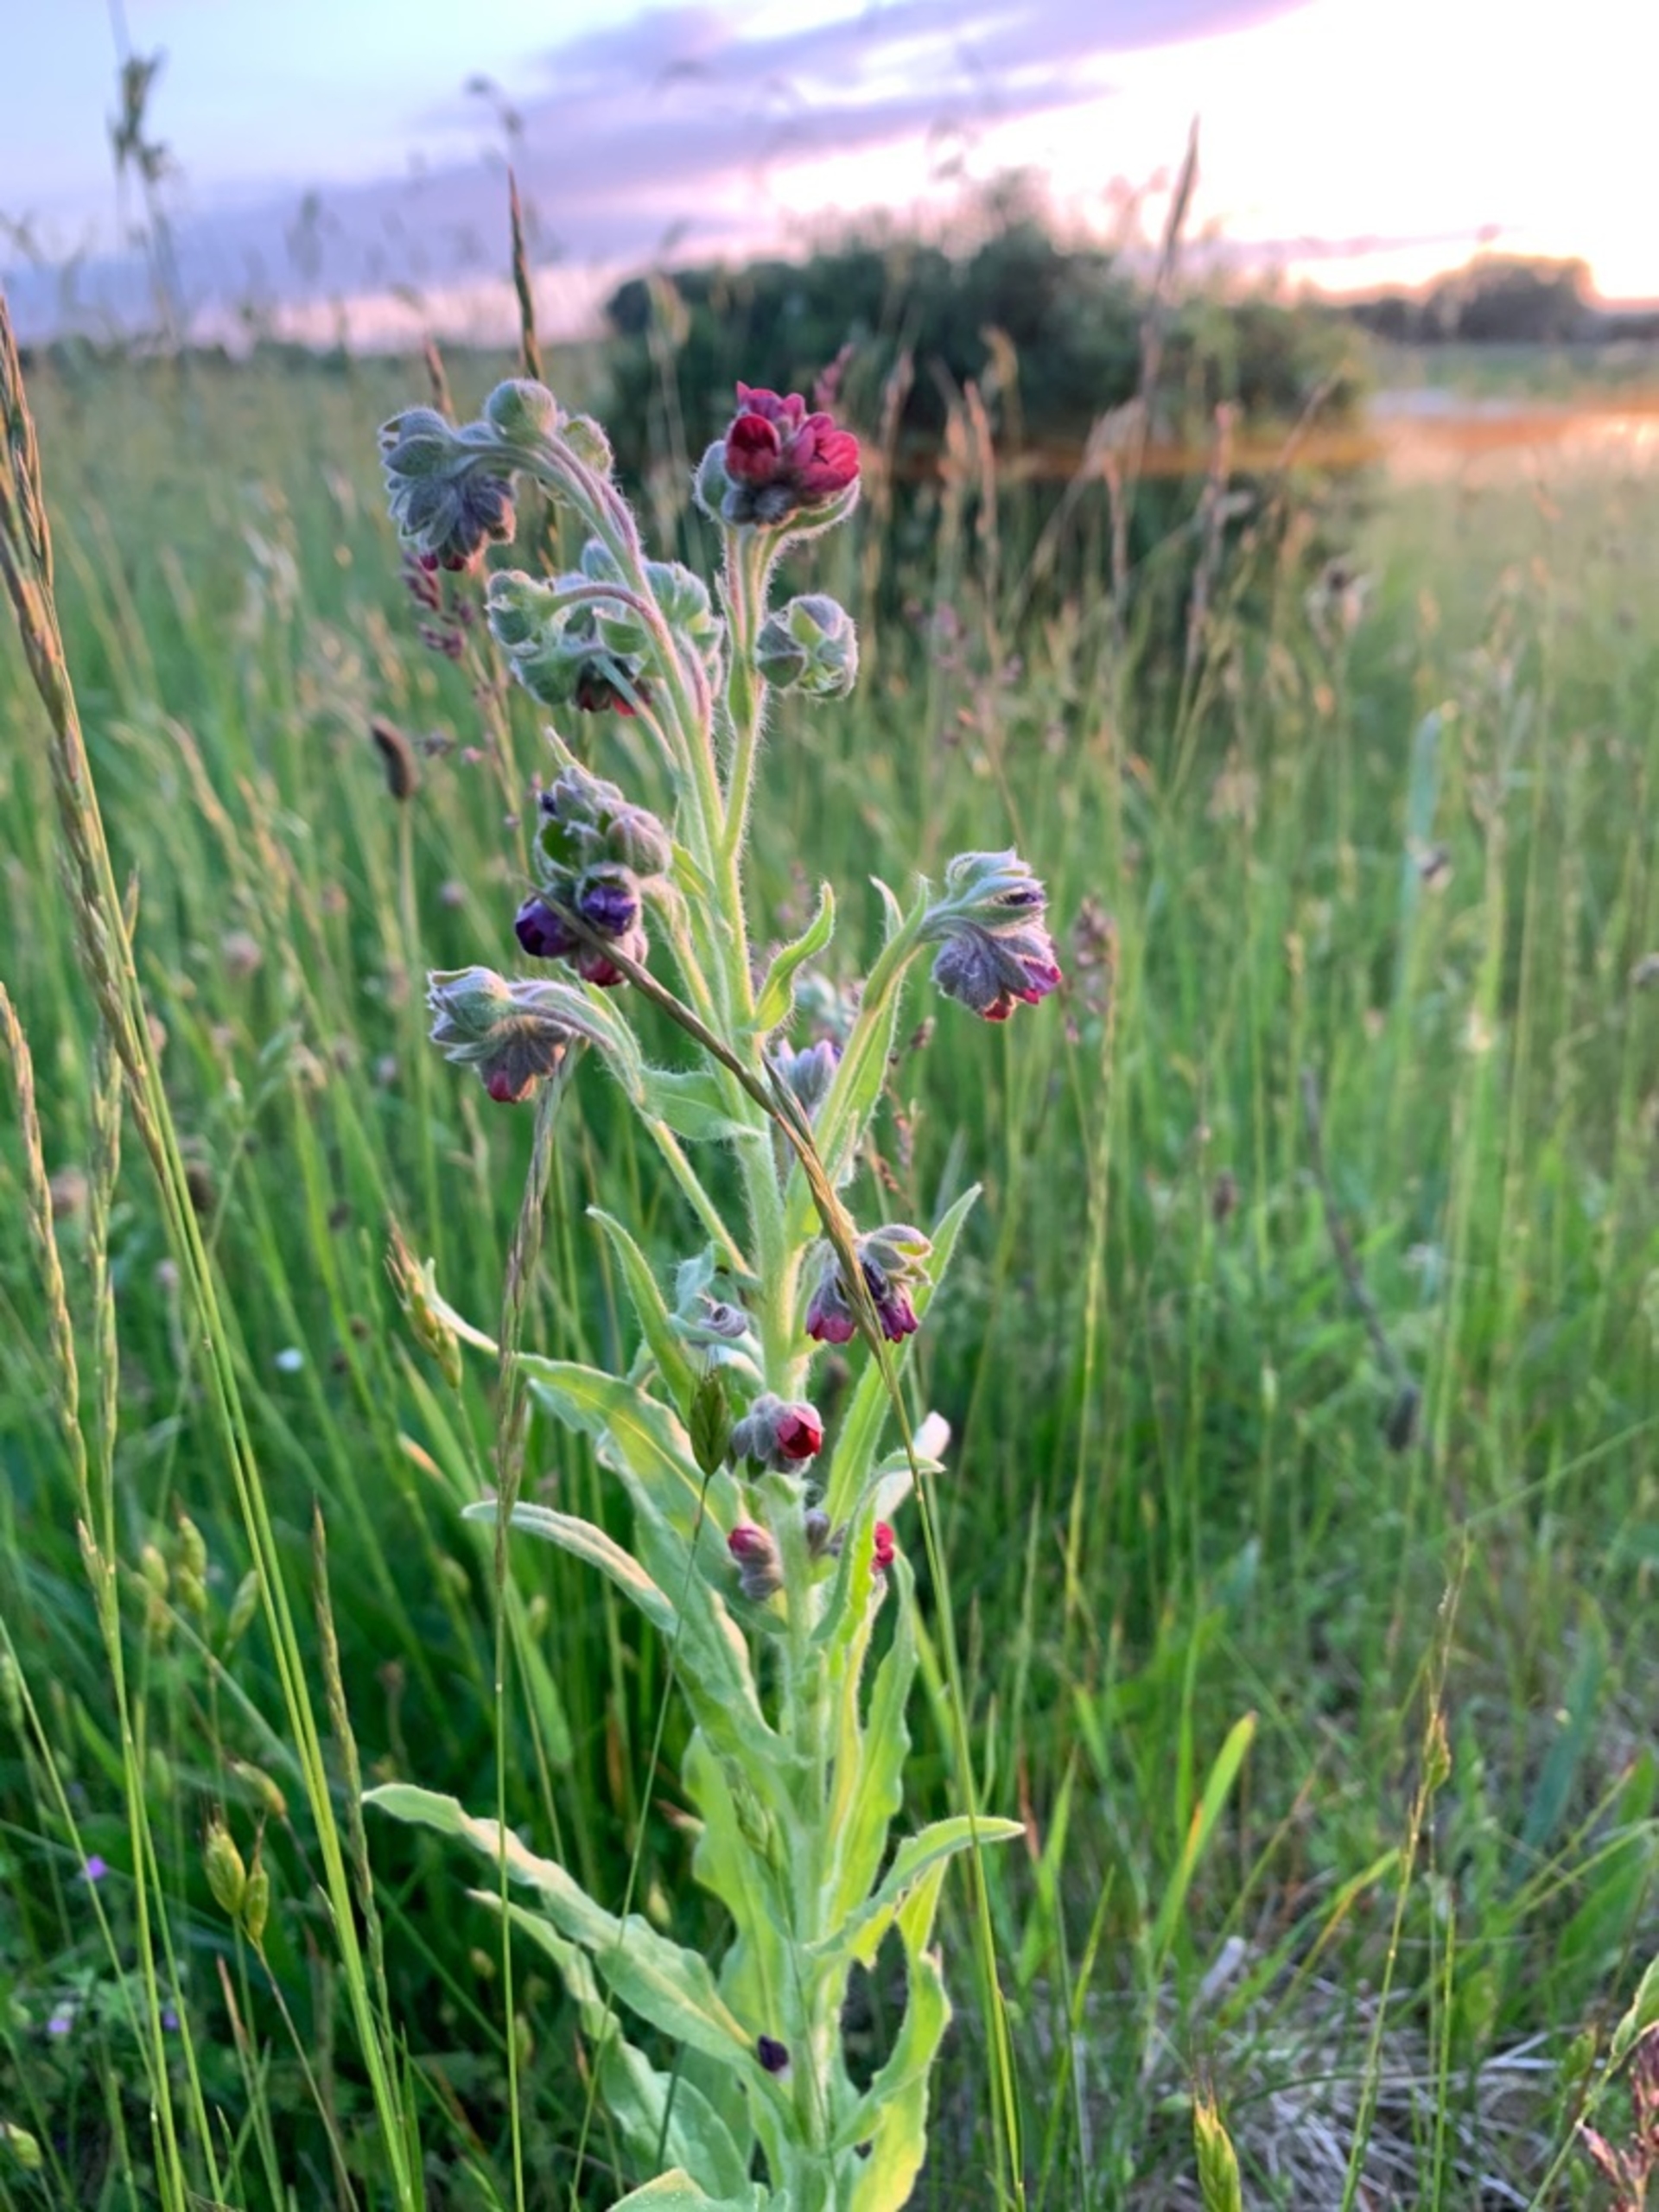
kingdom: Plantae
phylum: Tracheophyta
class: Magnoliopsida
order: Boraginales
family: Boraginaceae
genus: Cynoglossum
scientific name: Cynoglossum officinale
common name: Hundetunge
